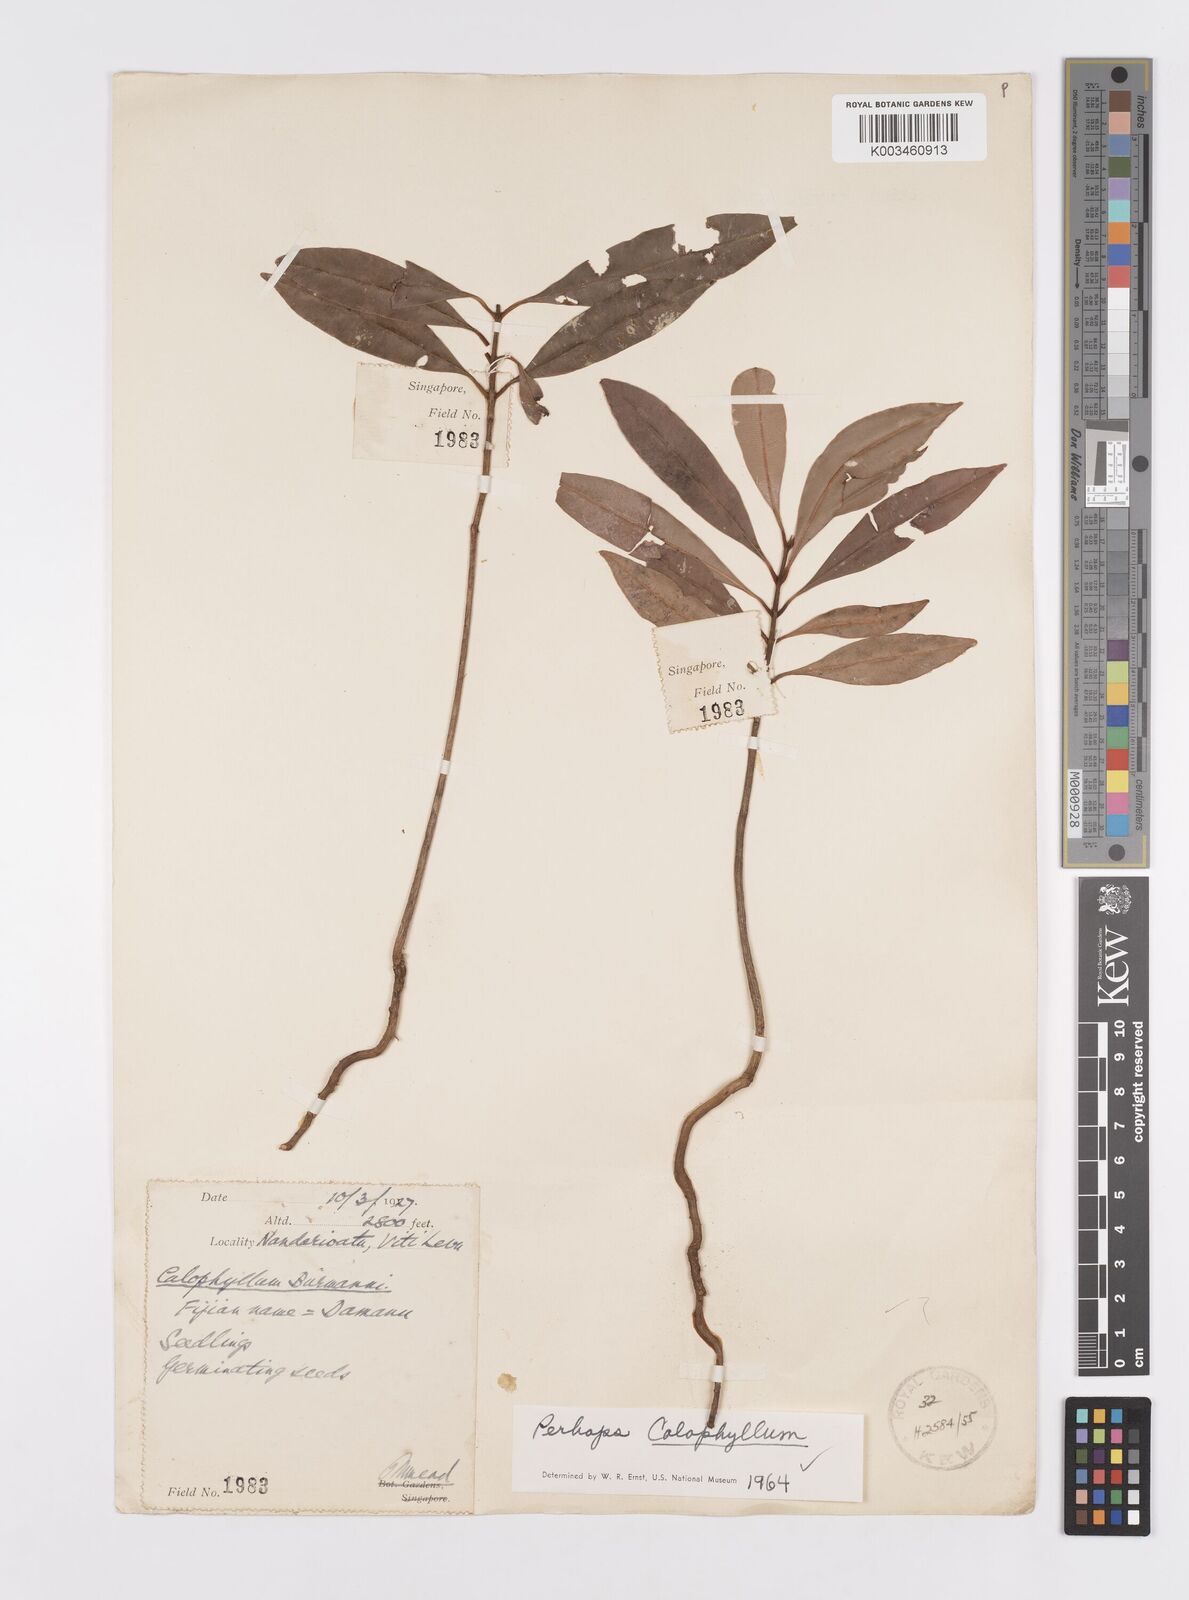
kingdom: Plantae
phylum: Tracheophyta
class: Magnoliopsida
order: Malpighiales
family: Calophyllaceae
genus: Calophyllum
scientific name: Calophyllum
